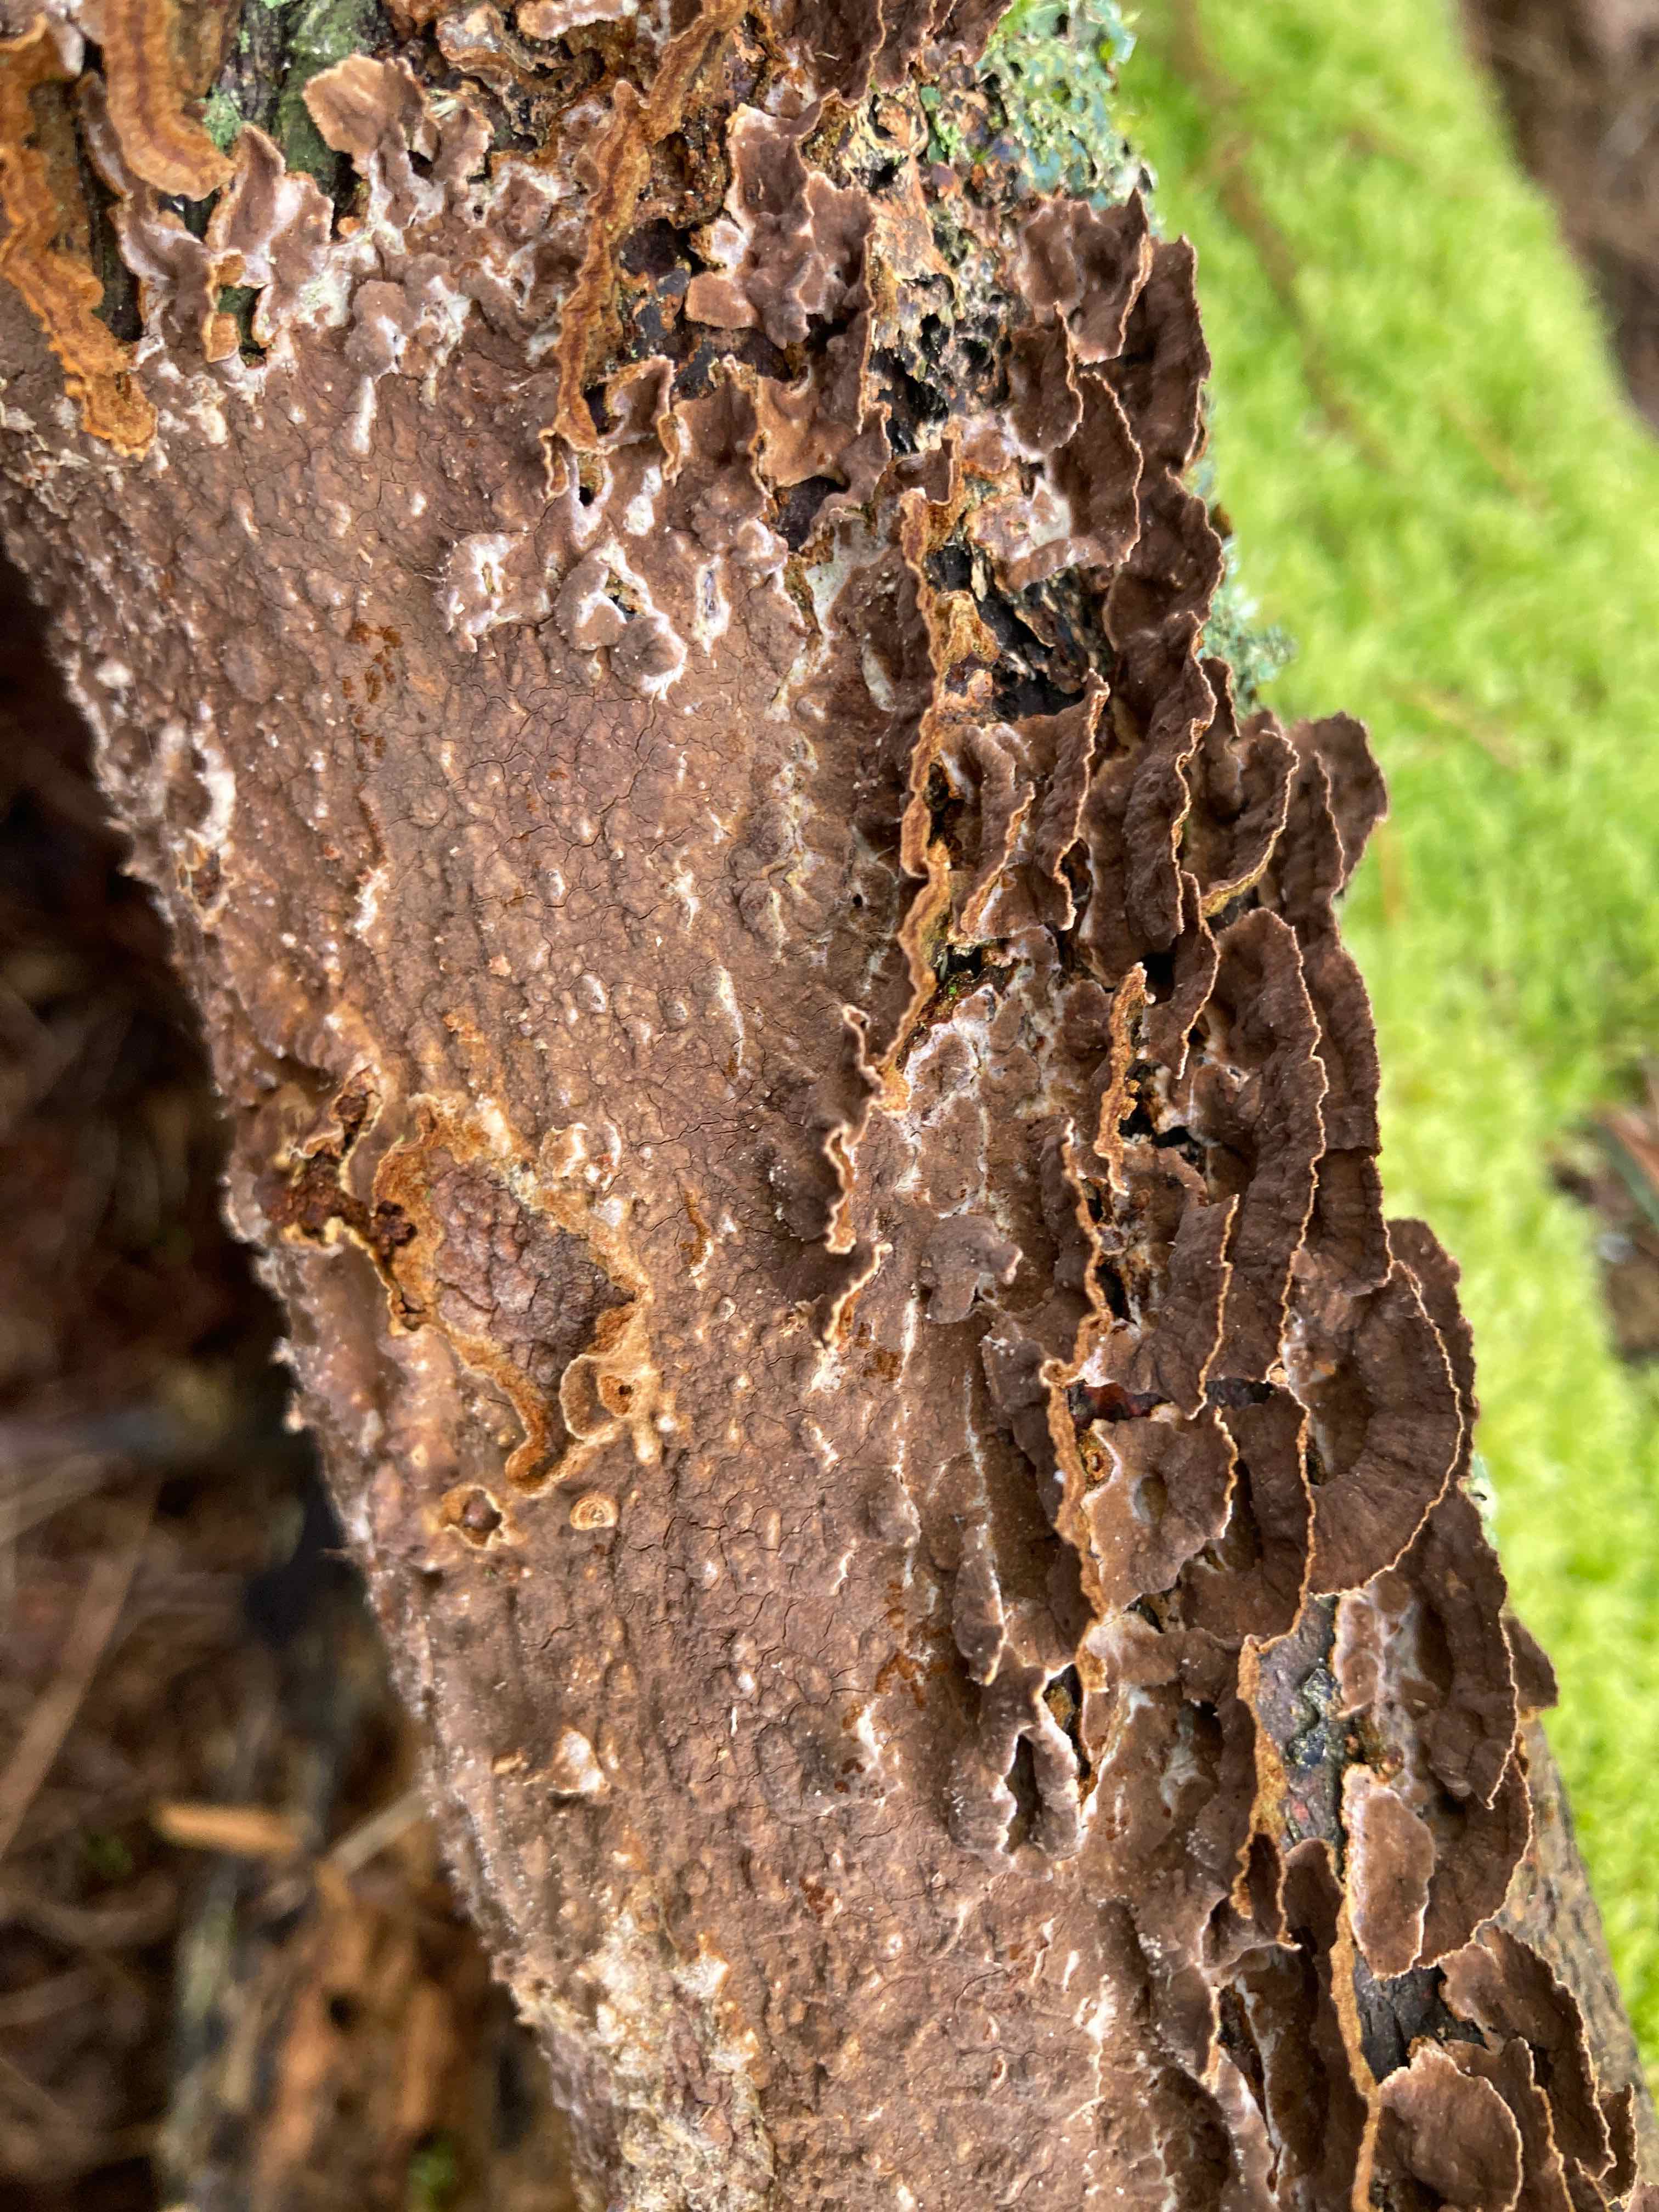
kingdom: Fungi
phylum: Basidiomycota
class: Agaricomycetes
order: Hymenochaetales
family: Hymenochaetaceae
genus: Hydnoporia
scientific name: Hydnoporia tabacina
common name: tobaksbrun ruslædersvamp
